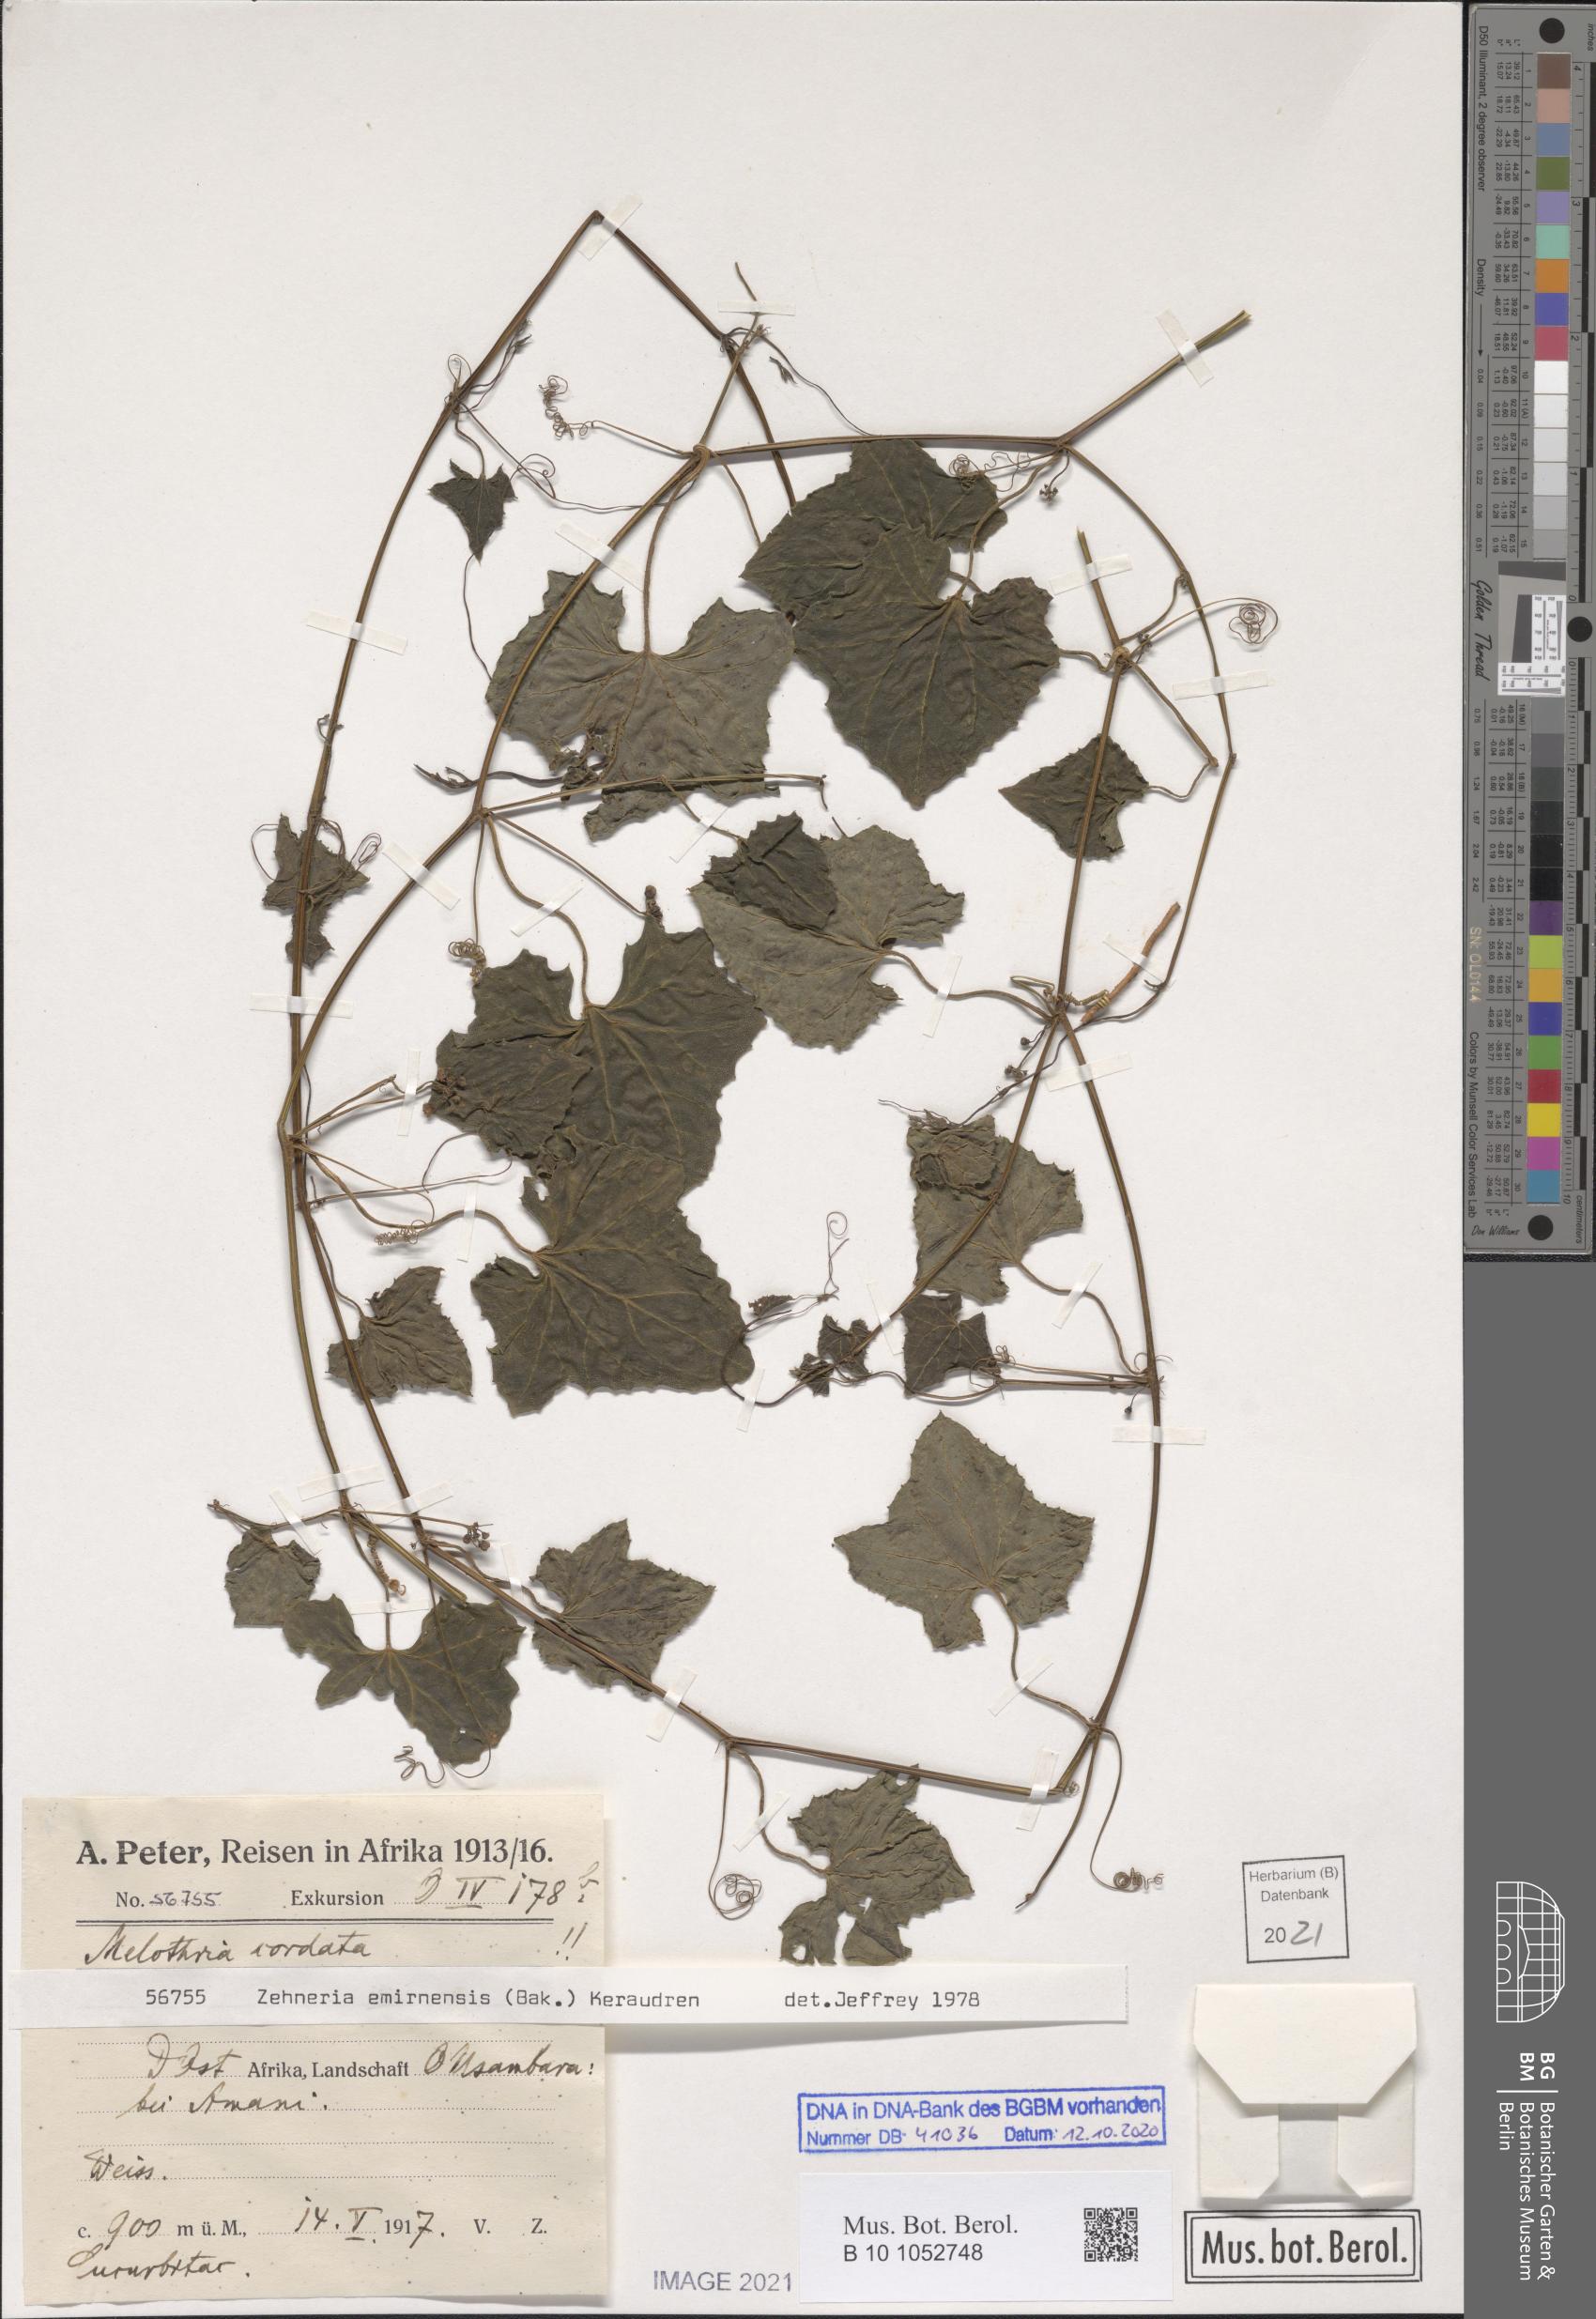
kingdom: Plantae
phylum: Tracheophyta
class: Magnoliopsida
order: Cucurbitales
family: Cucurbitaceae
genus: Zehneria
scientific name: Zehneria emirnensis
